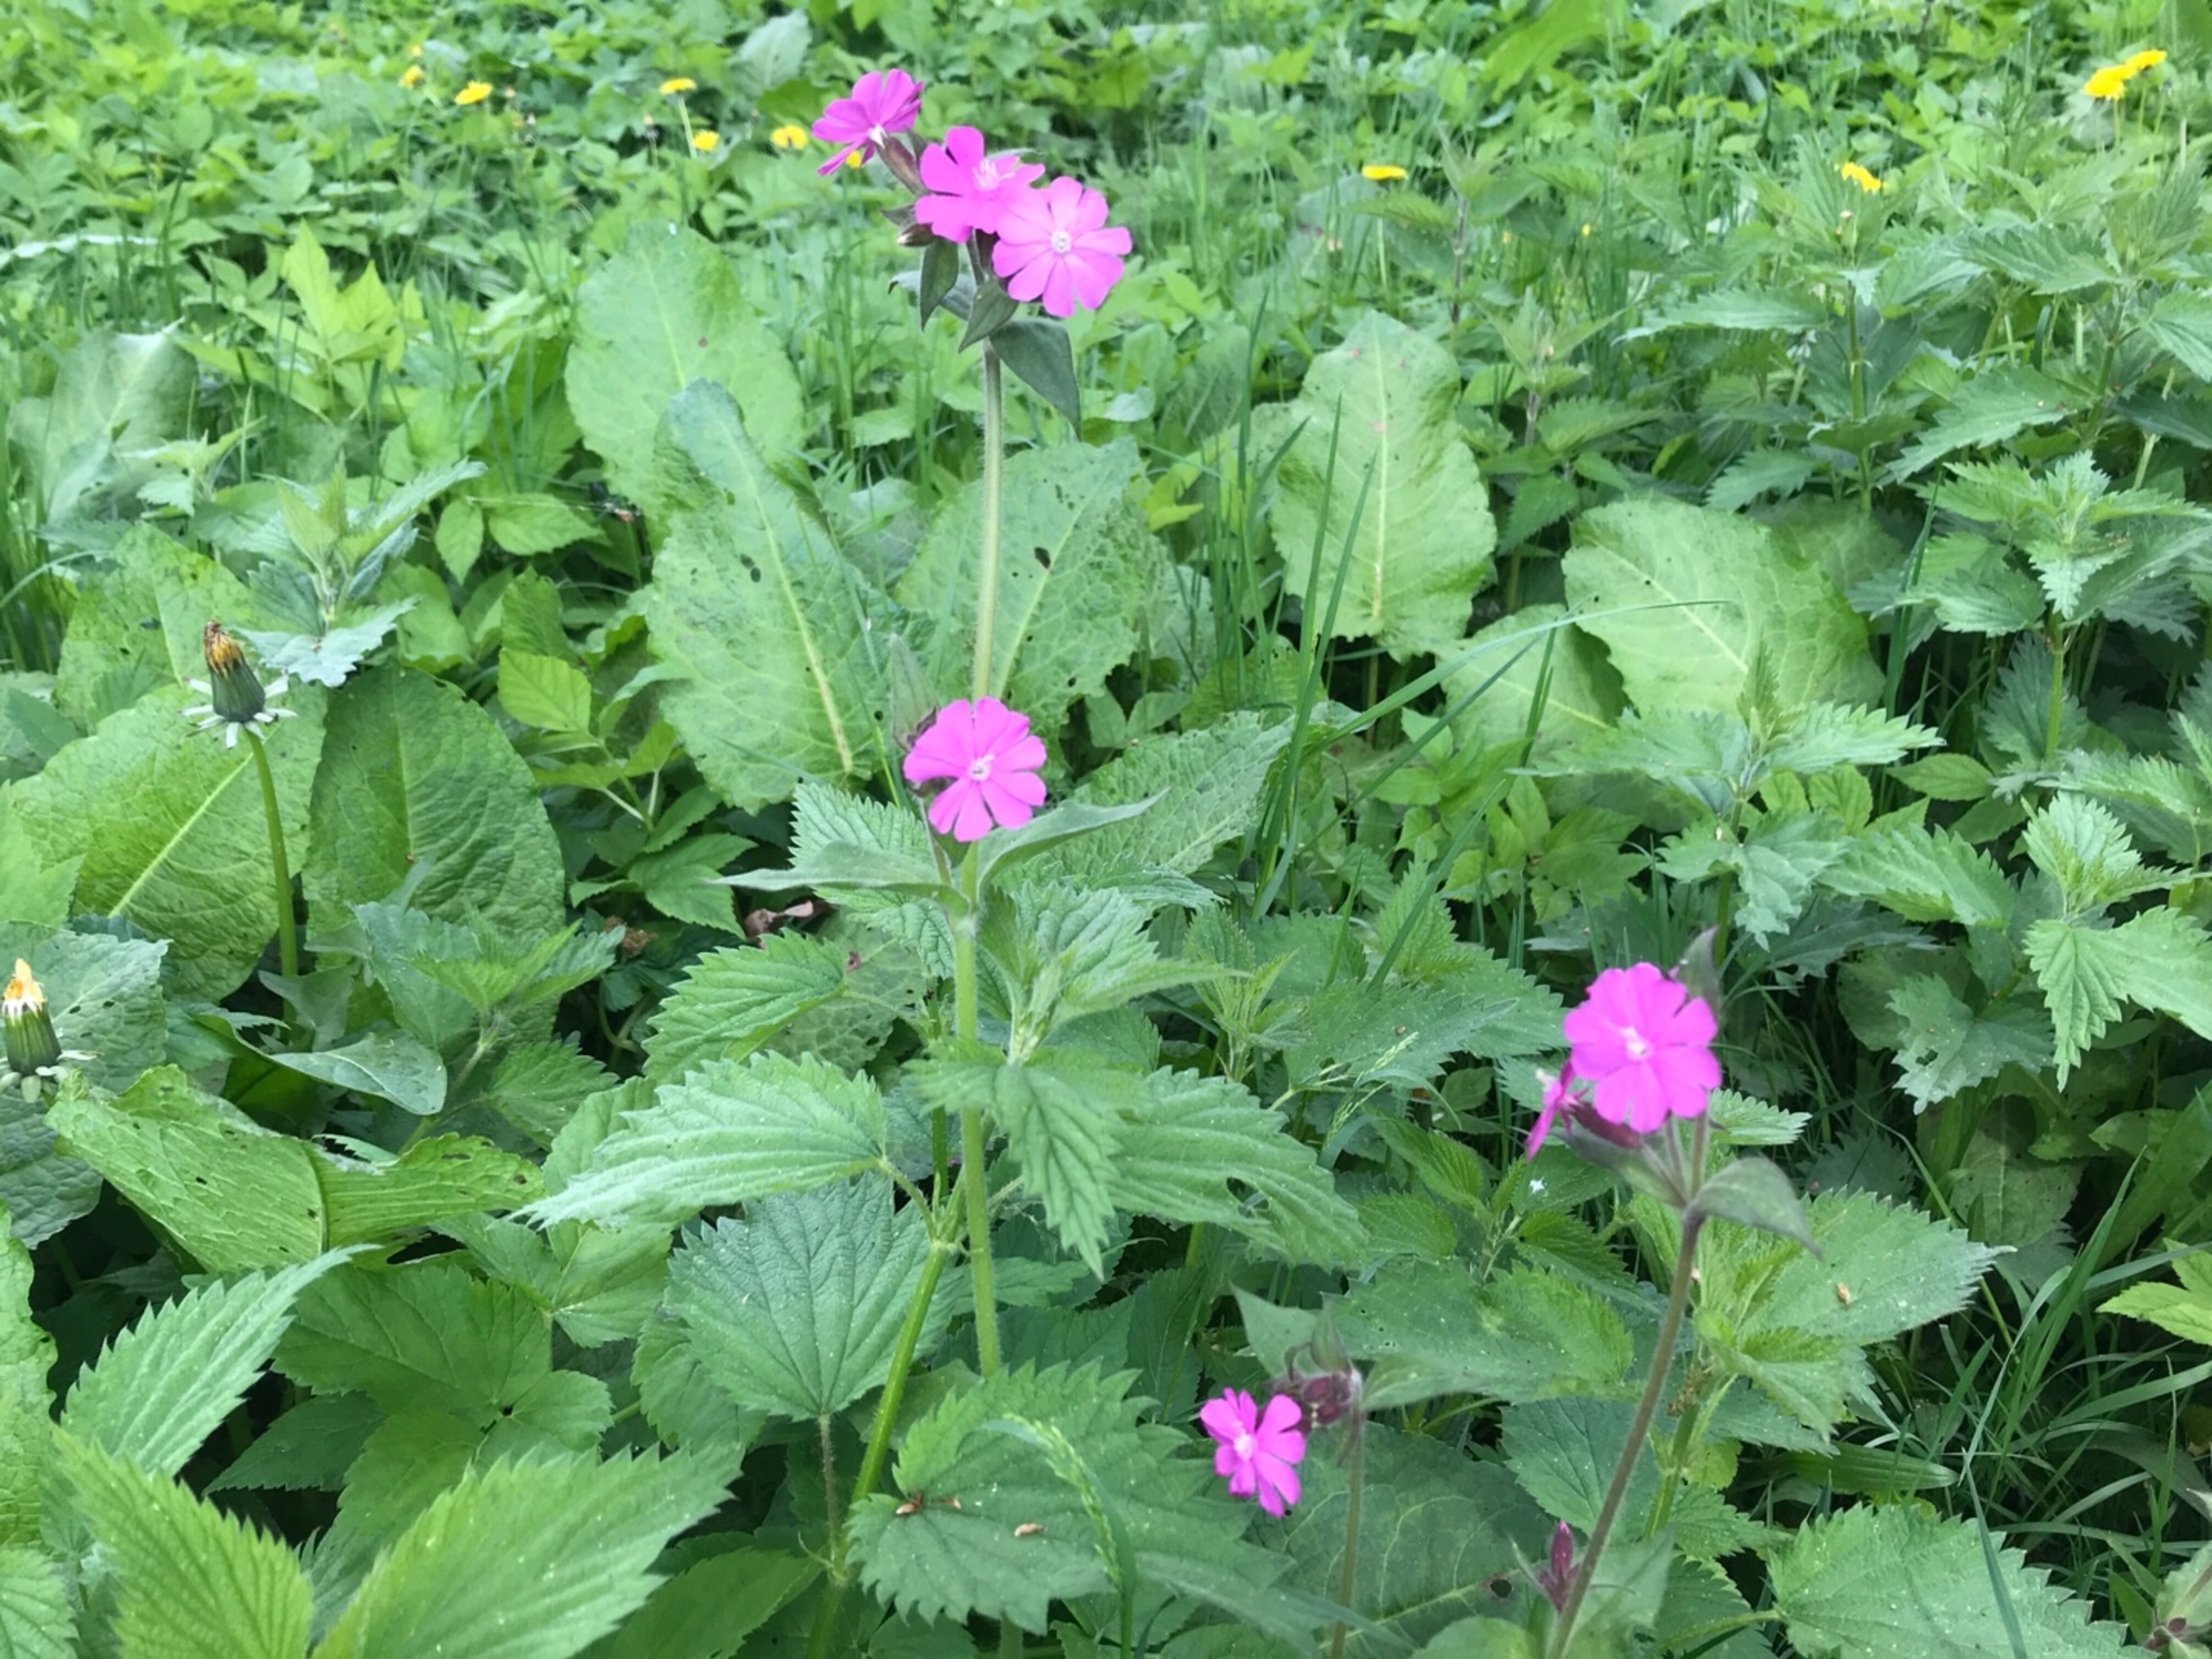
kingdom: Plantae
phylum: Tracheophyta
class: Magnoliopsida
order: Caryophyllales
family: Caryophyllaceae
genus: Silene
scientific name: Silene dioica
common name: Dagpragtstjerne
